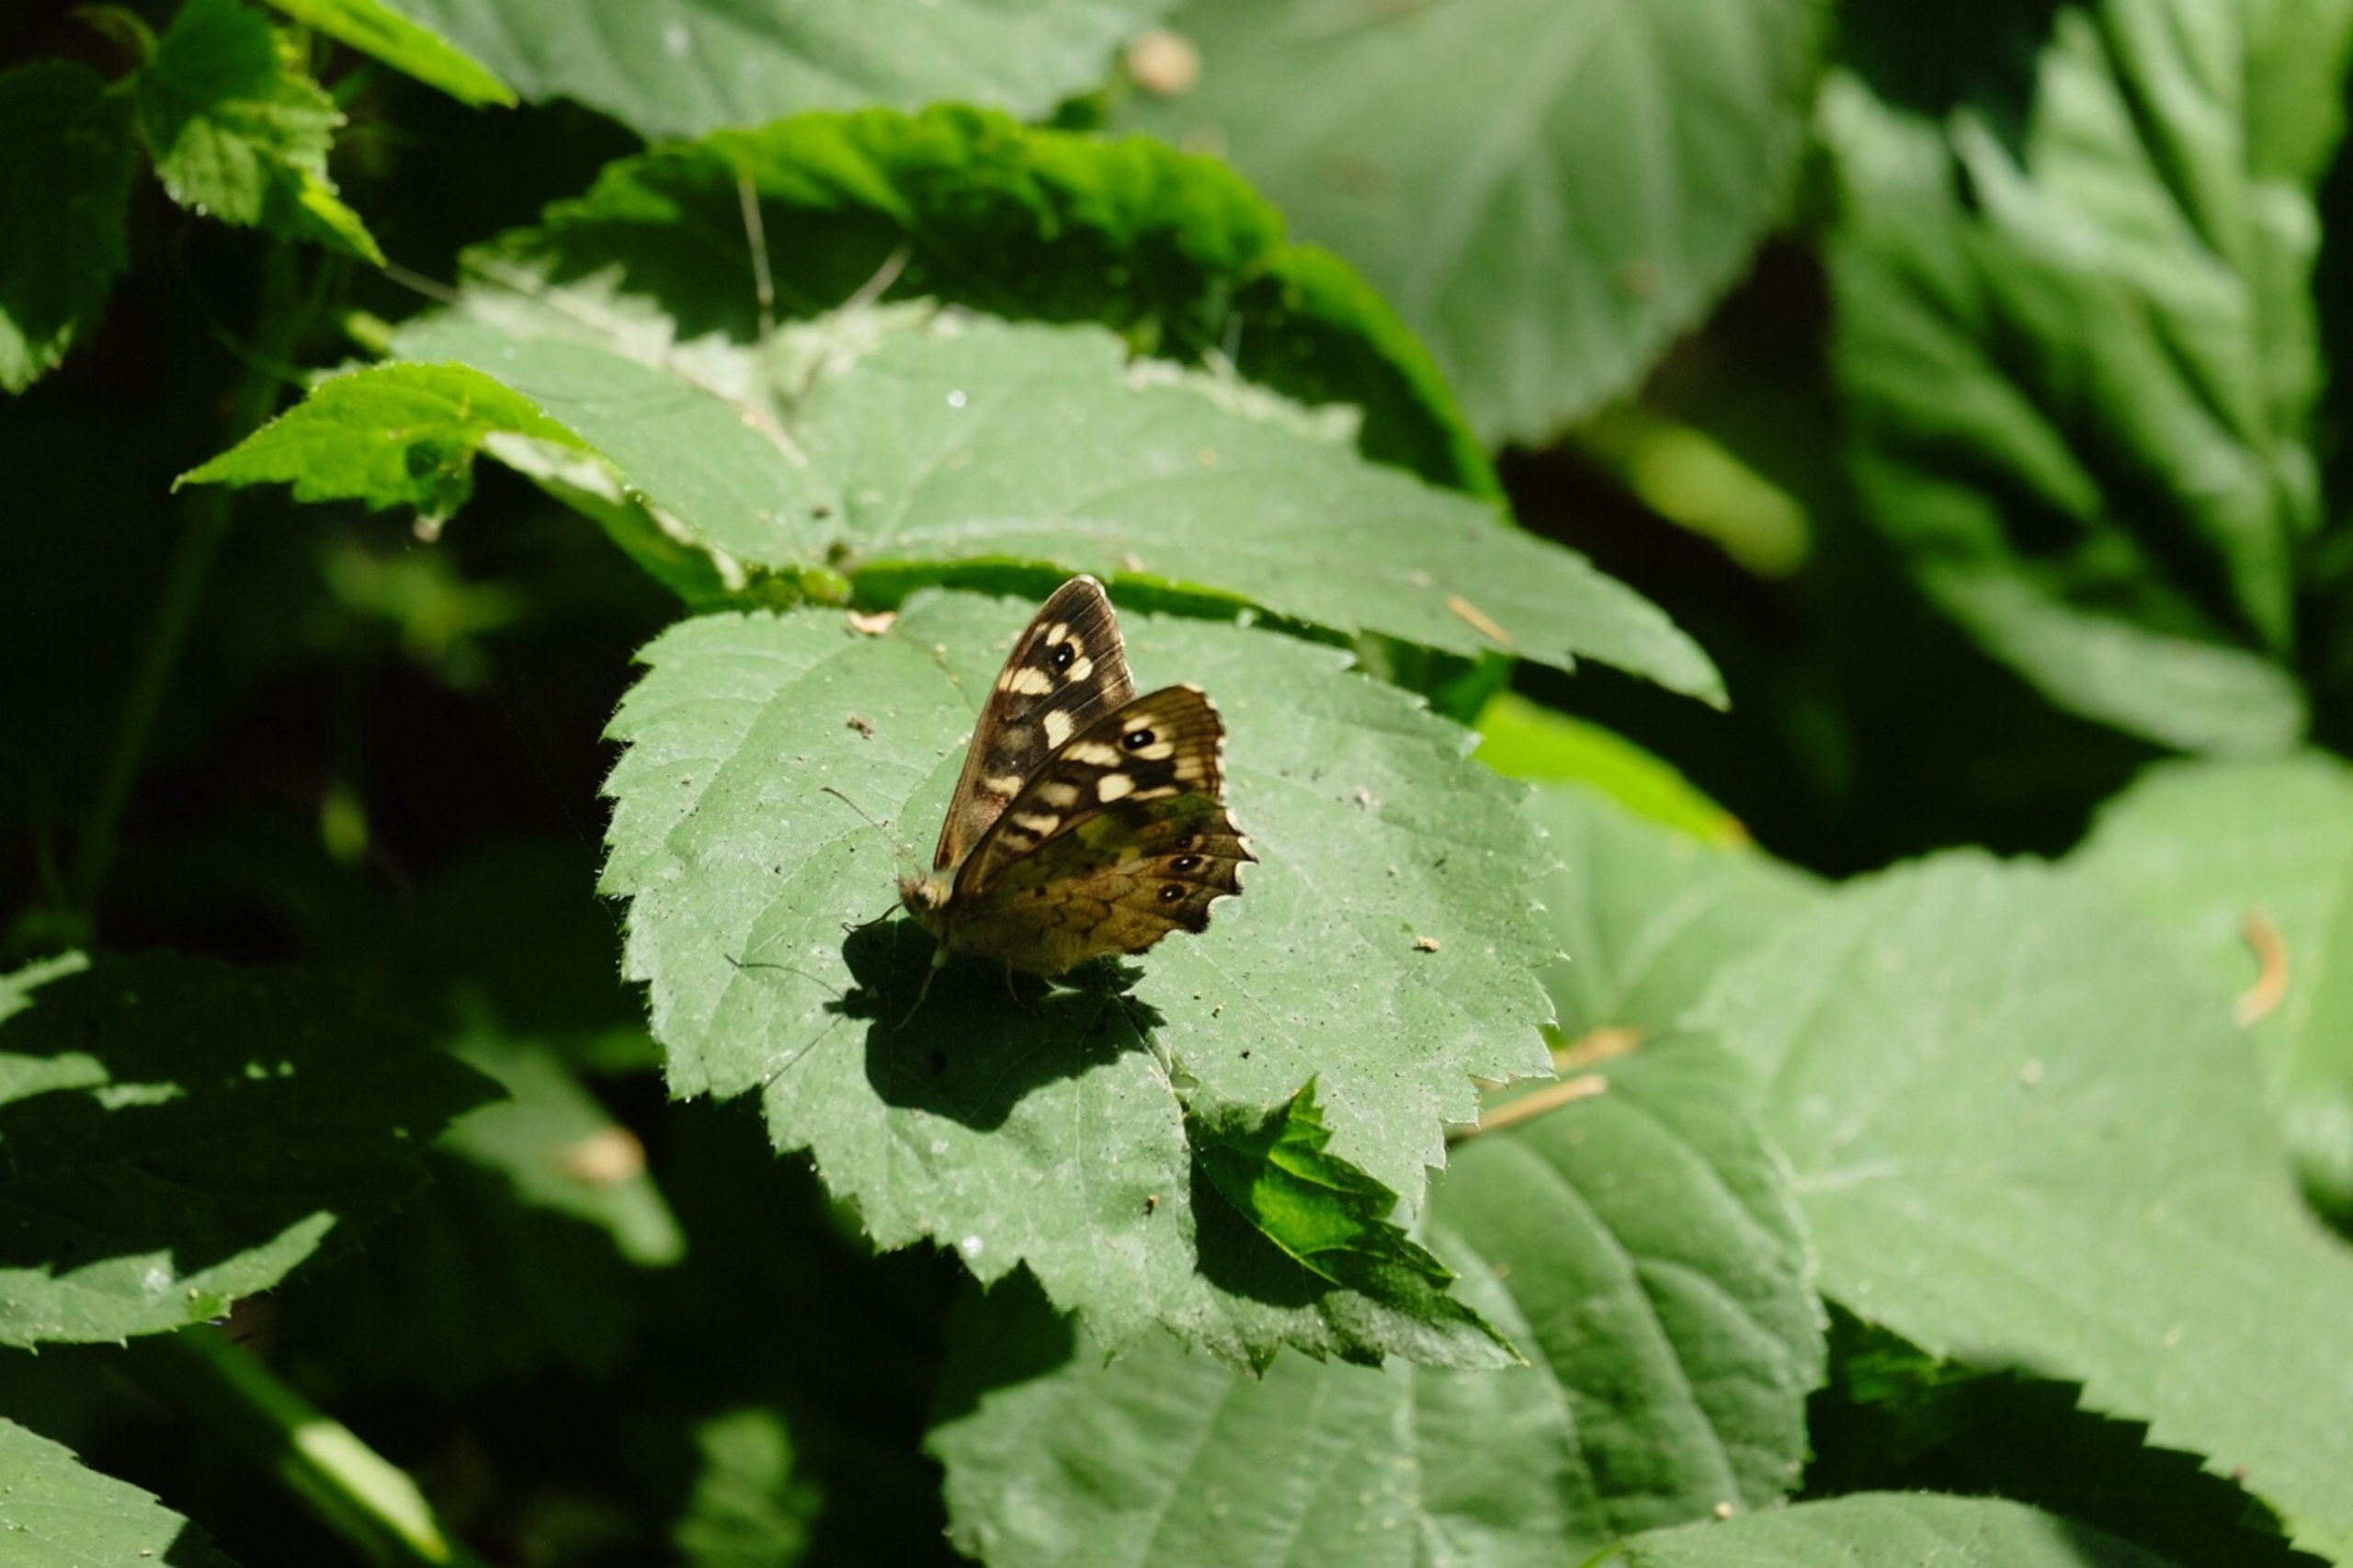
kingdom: Animalia
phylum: Arthropoda
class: Insecta
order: Lepidoptera
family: Nymphalidae
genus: Pararge
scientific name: Pararge aegeria
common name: Skovrandøje
